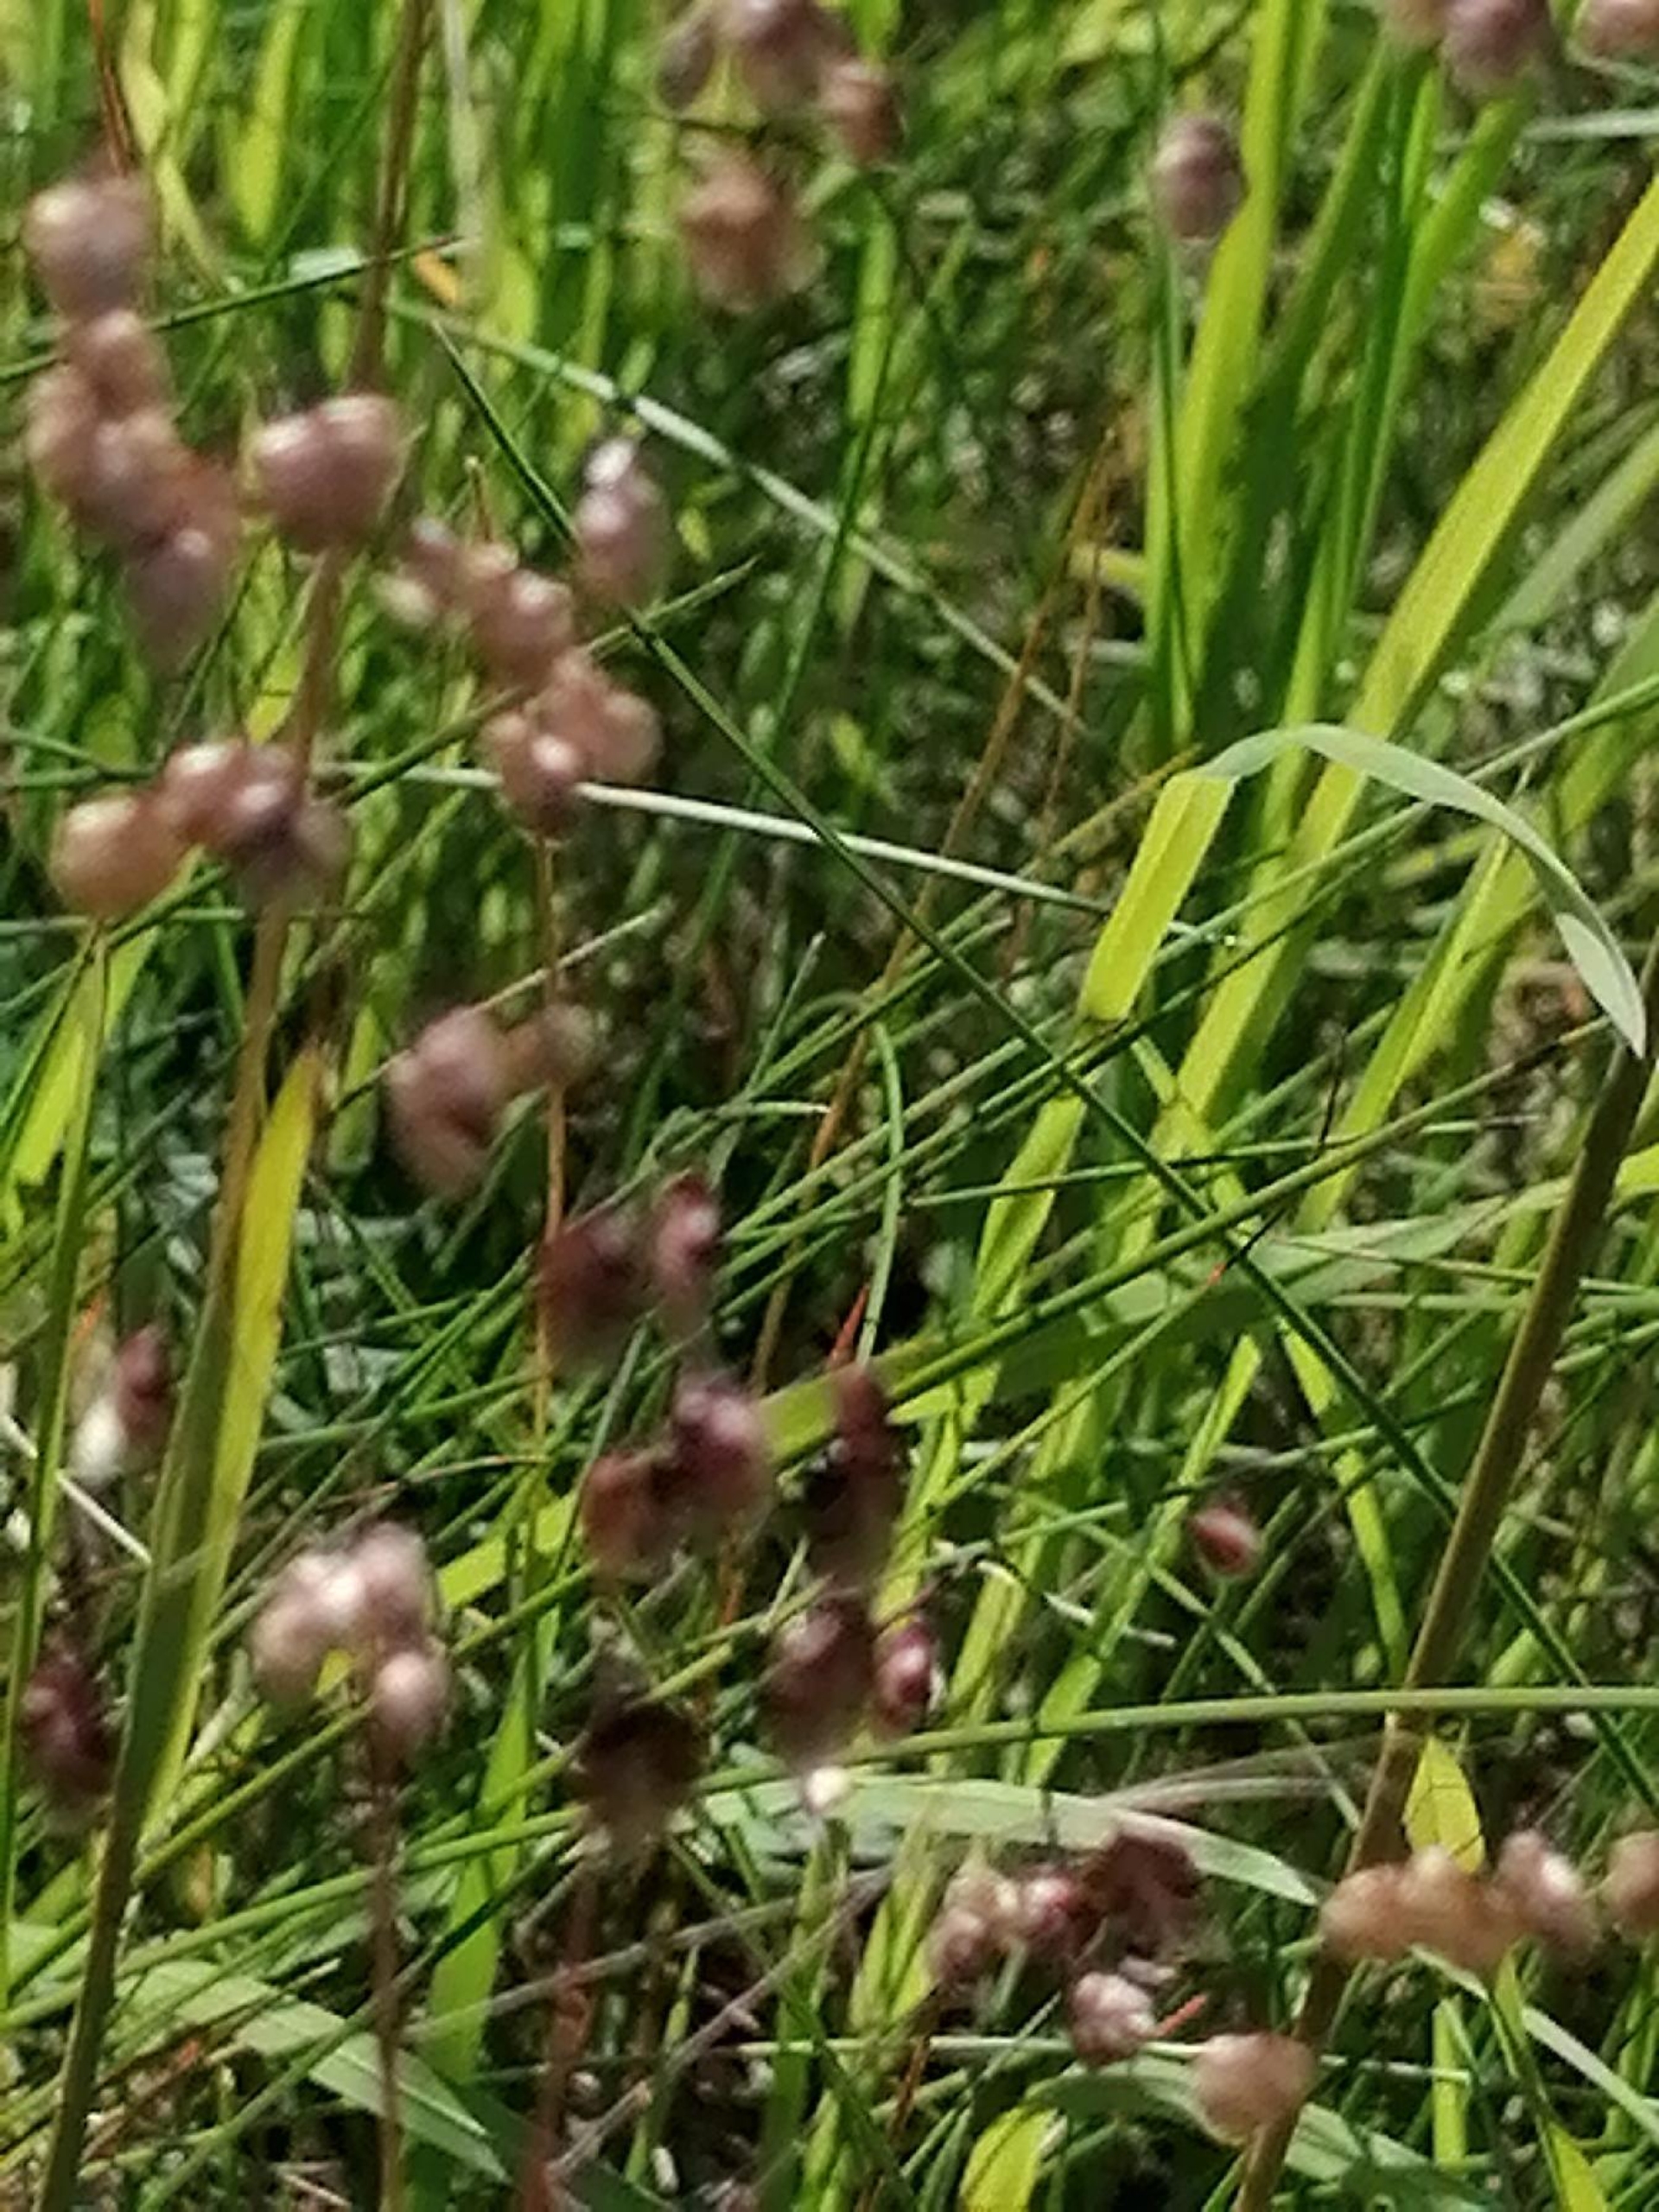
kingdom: Plantae
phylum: Tracheophyta
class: Liliopsida
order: Poales
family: Poaceae
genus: Briza
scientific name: Briza media
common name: Hjertegræs
